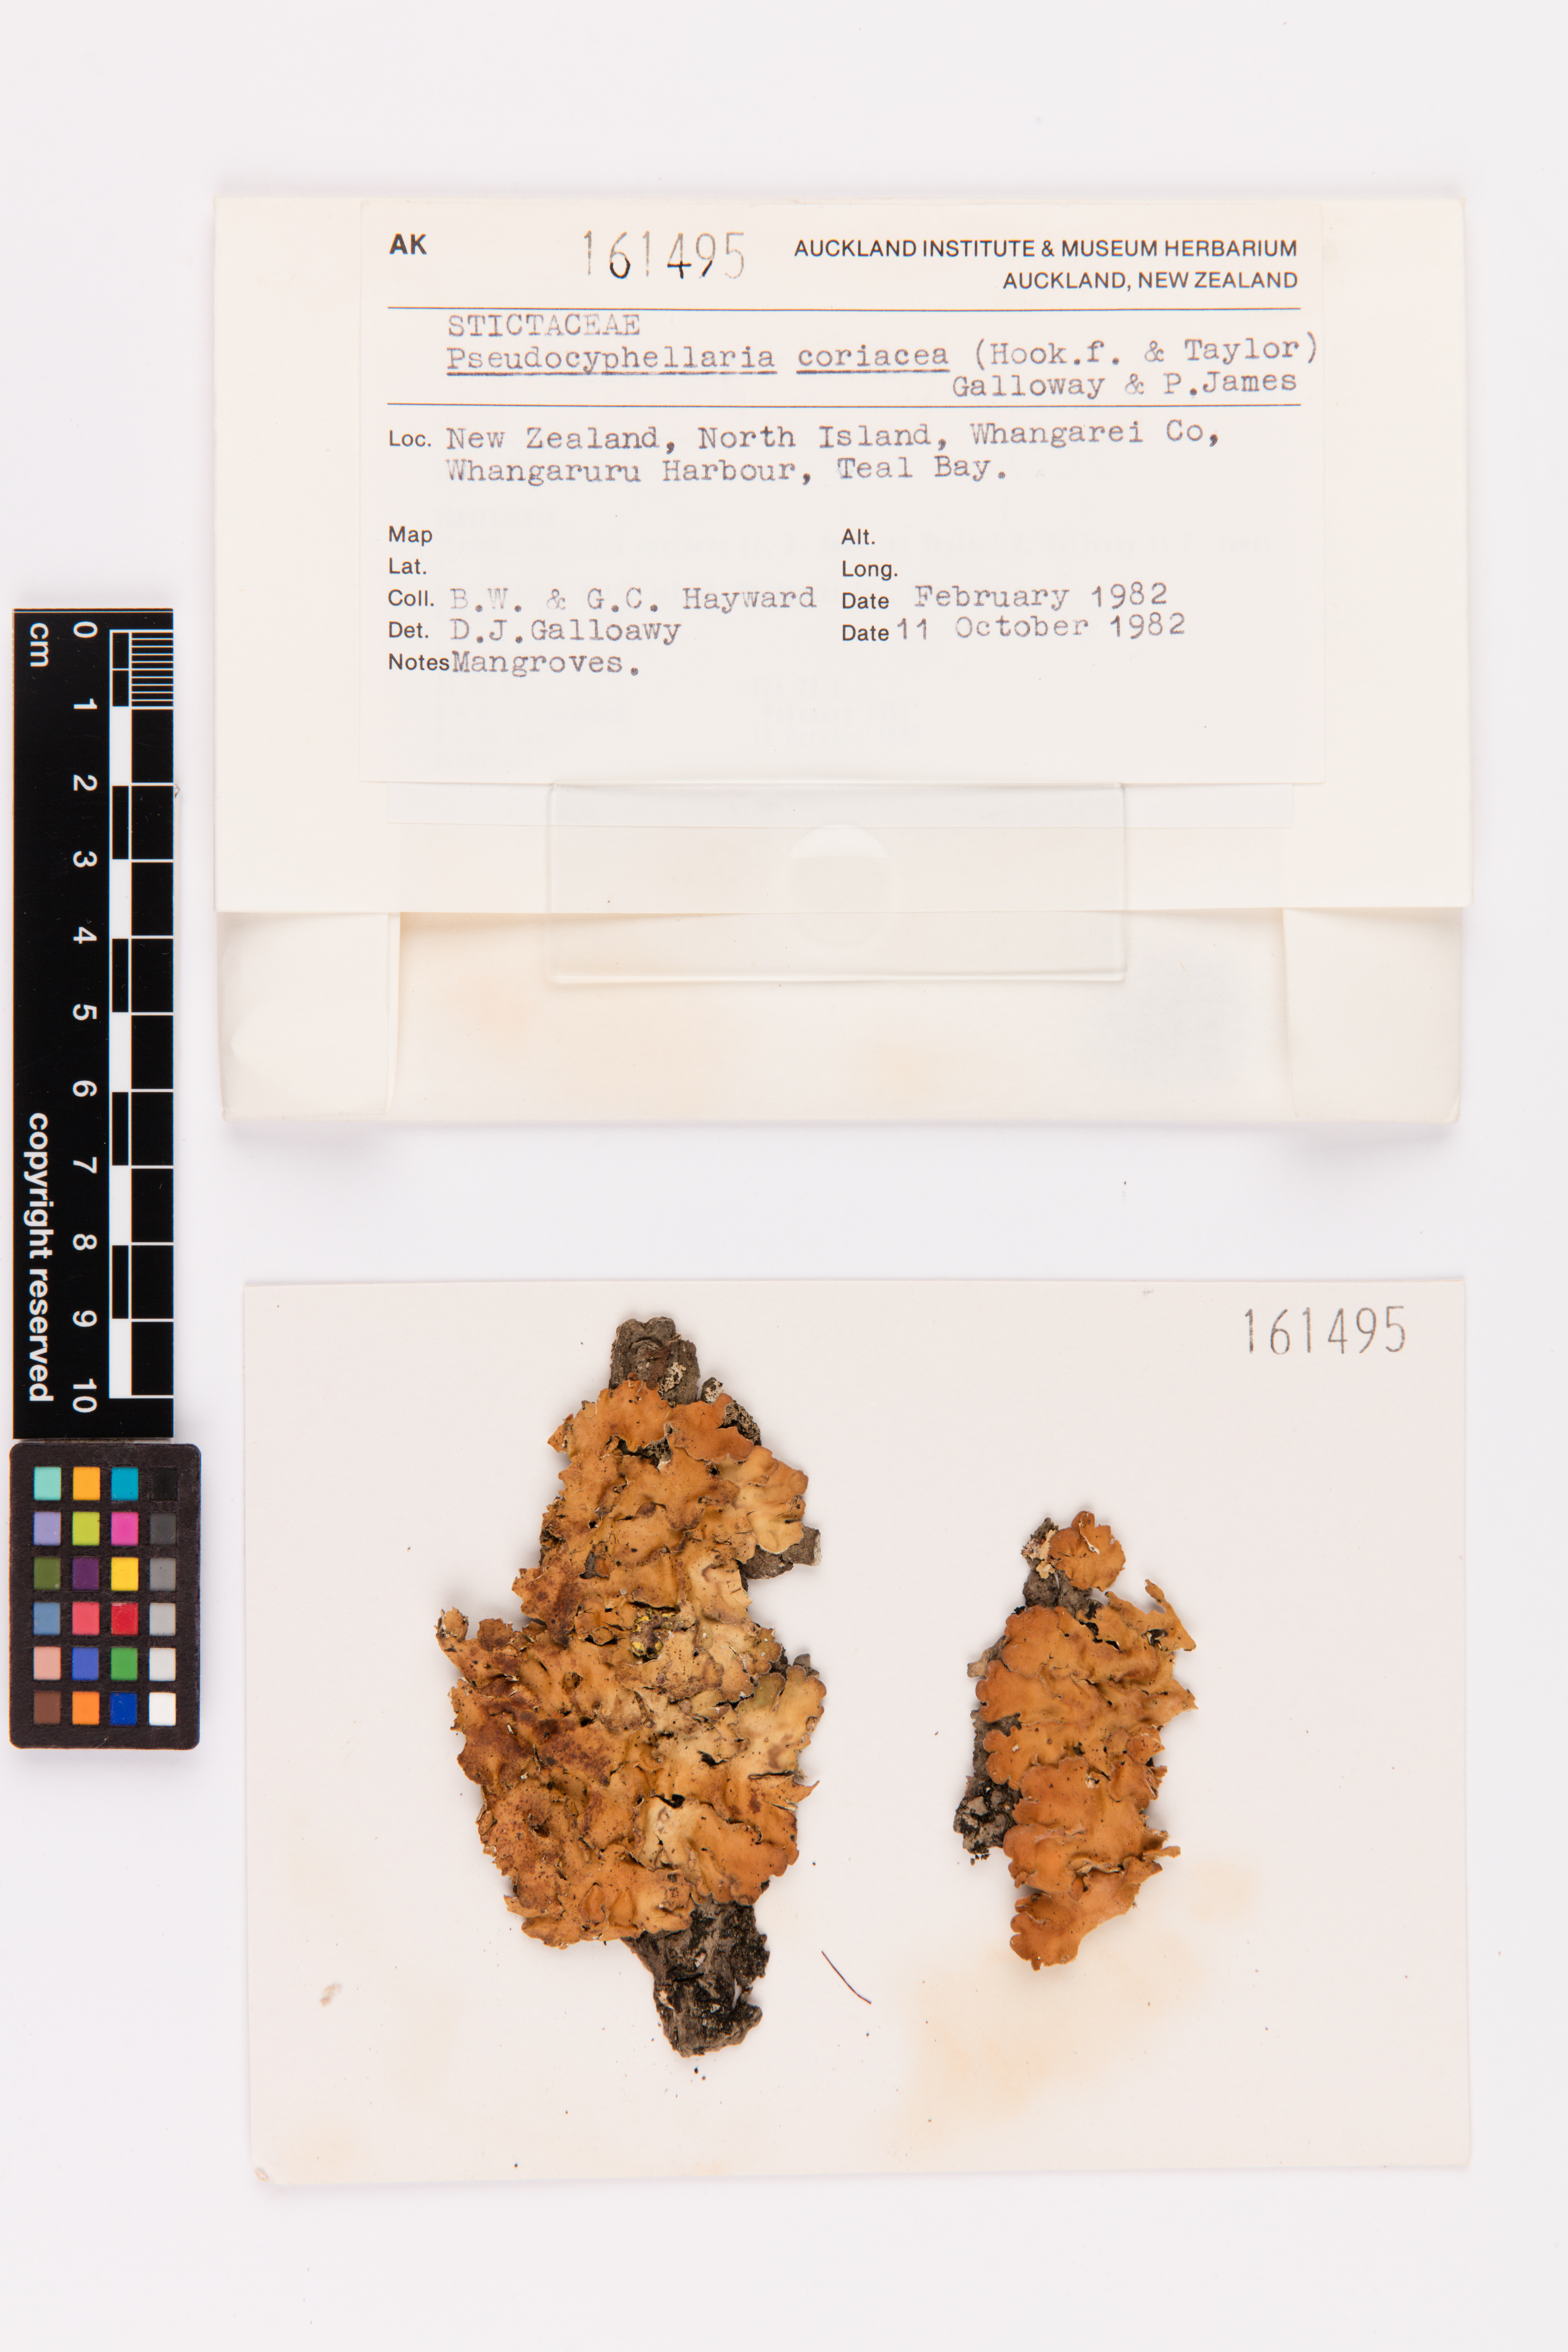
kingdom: Fungi
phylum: Ascomycota
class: Lecanoromycetes
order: Peltigerales
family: Lobariaceae
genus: Pseudocyphellaria
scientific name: Pseudocyphellaria coriacea
